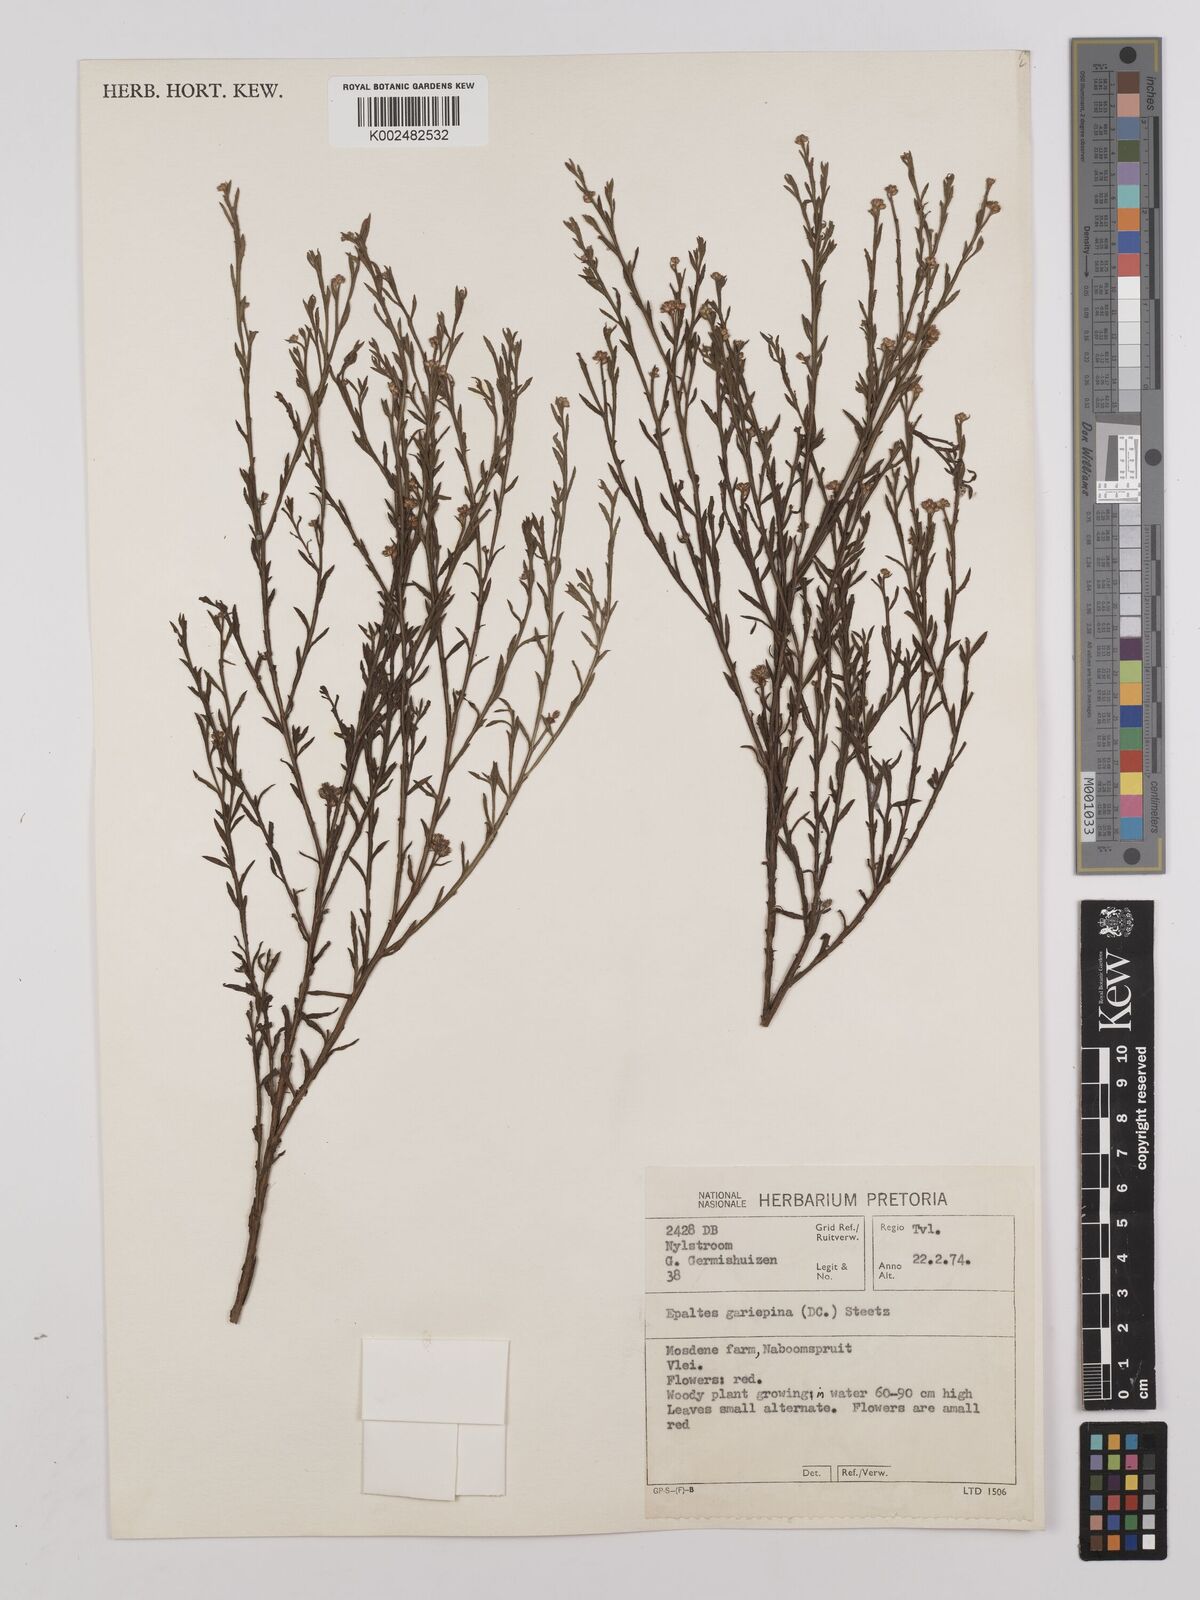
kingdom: Plantae
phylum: Tracheophyta
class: Magnoliopsida
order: Asterales
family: Asteraceae
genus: Litogyne
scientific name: Litogyne gariepina
